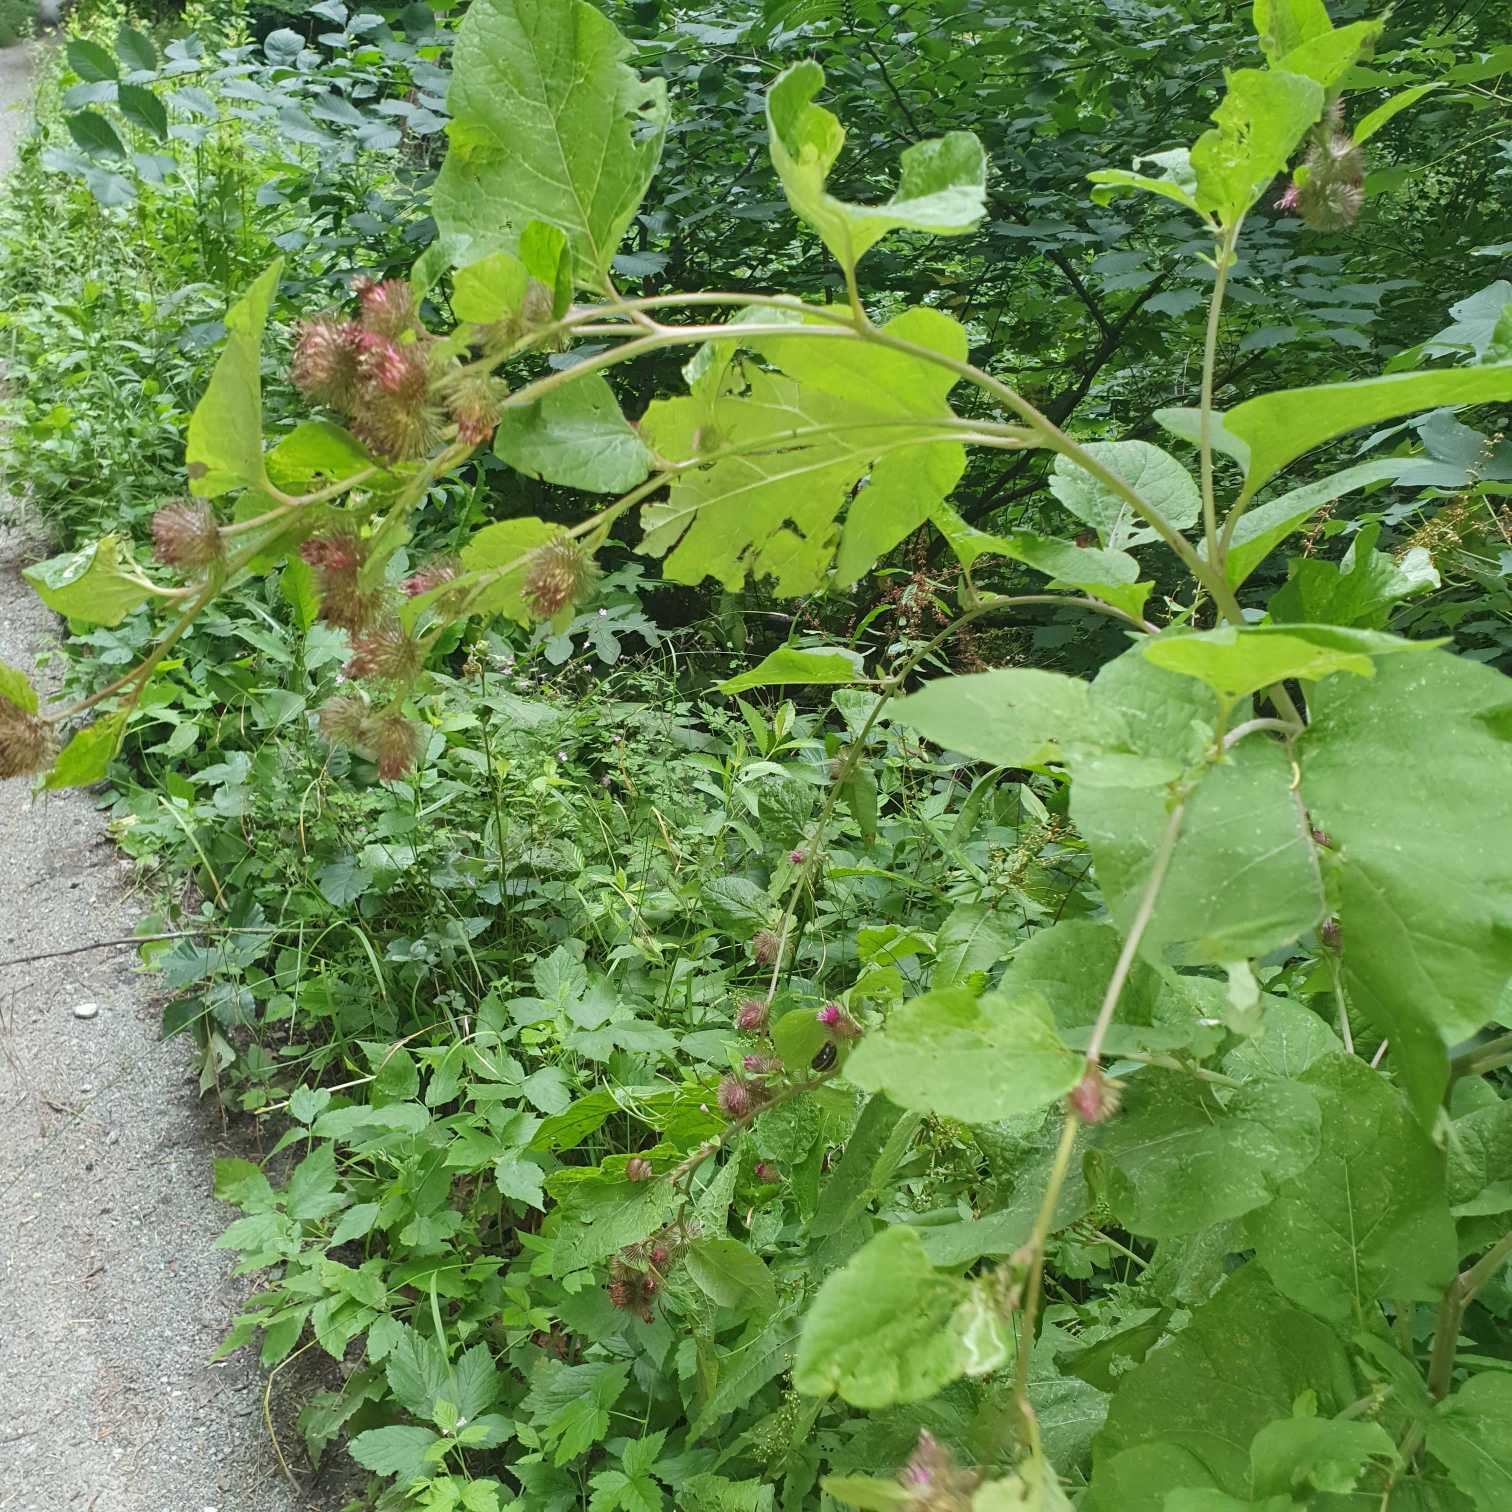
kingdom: Plantae
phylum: Tracheophyta
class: Magnoliopsida
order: Asterales
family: Asteraceae
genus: Arctium
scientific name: Arctium
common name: Burreslægten
